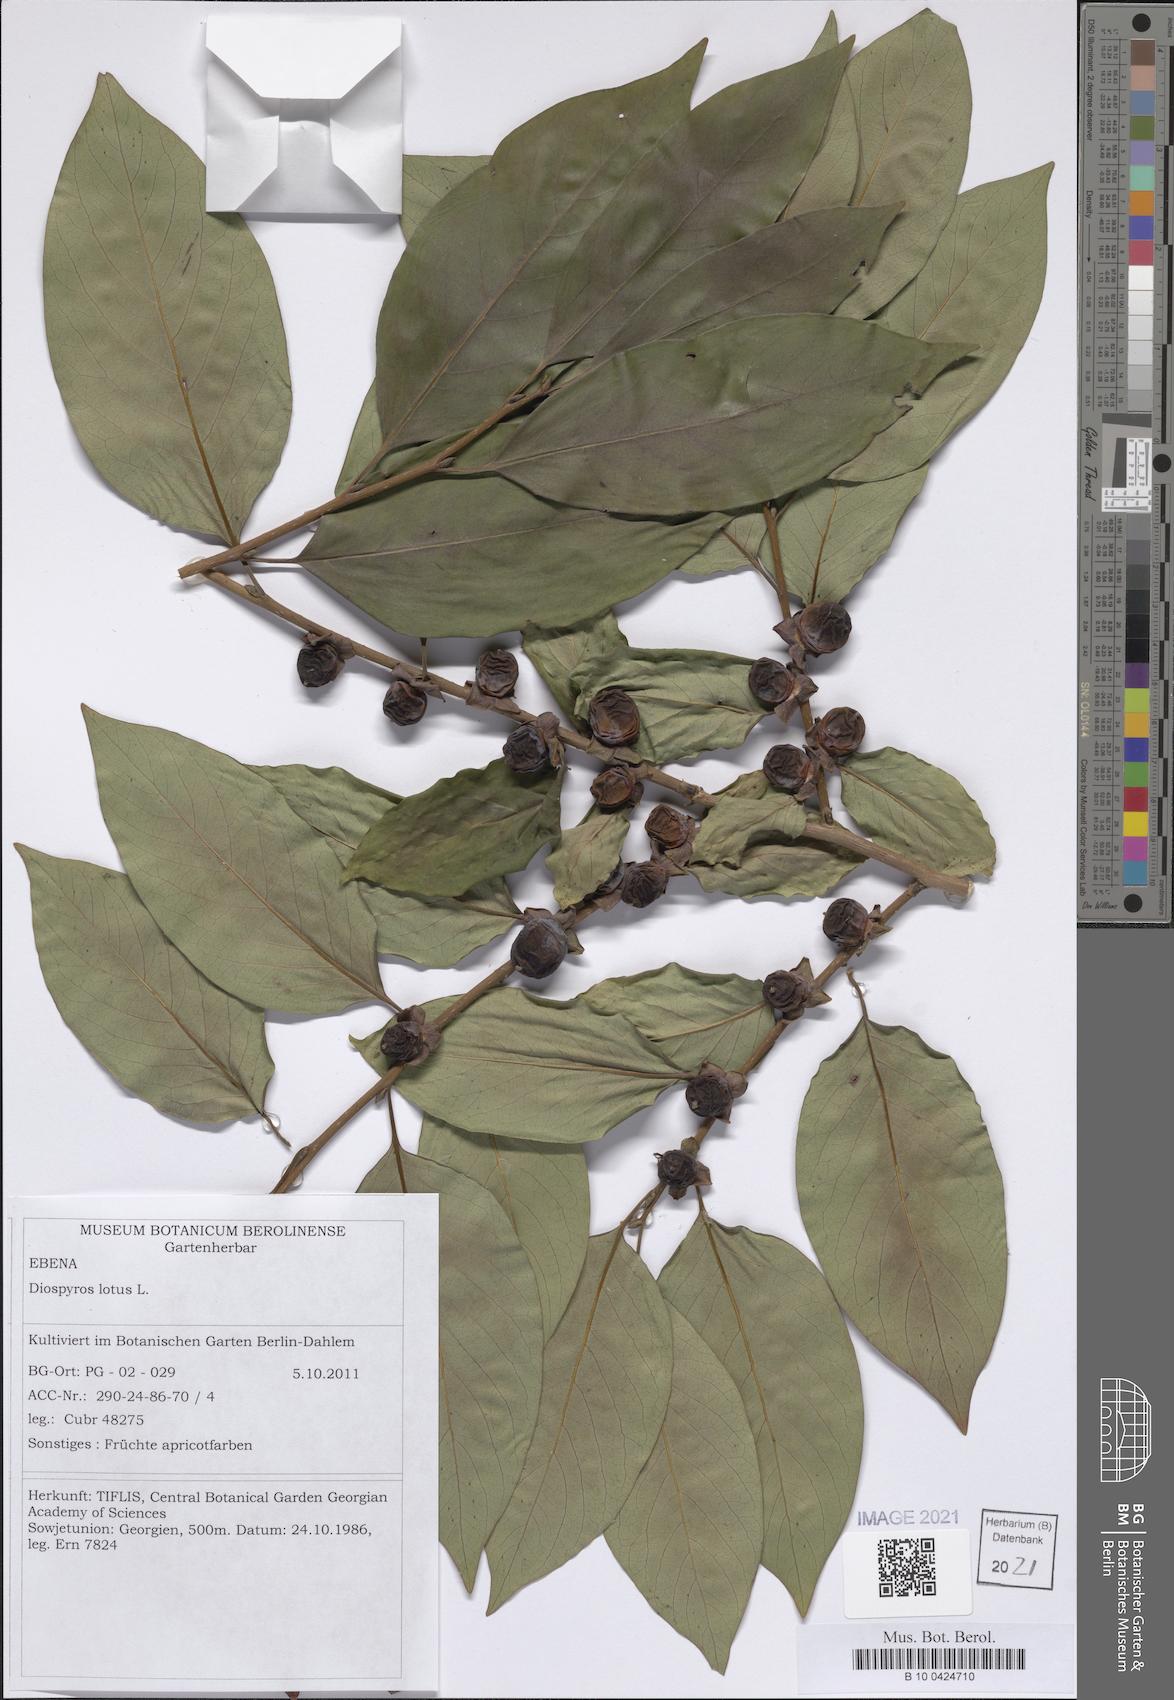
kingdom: Plantae
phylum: Tracheophyta
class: Magnoliopsida
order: Ericales
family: Ebenaceae
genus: Diospyros
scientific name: Diospyros lotus
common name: Date-plum
